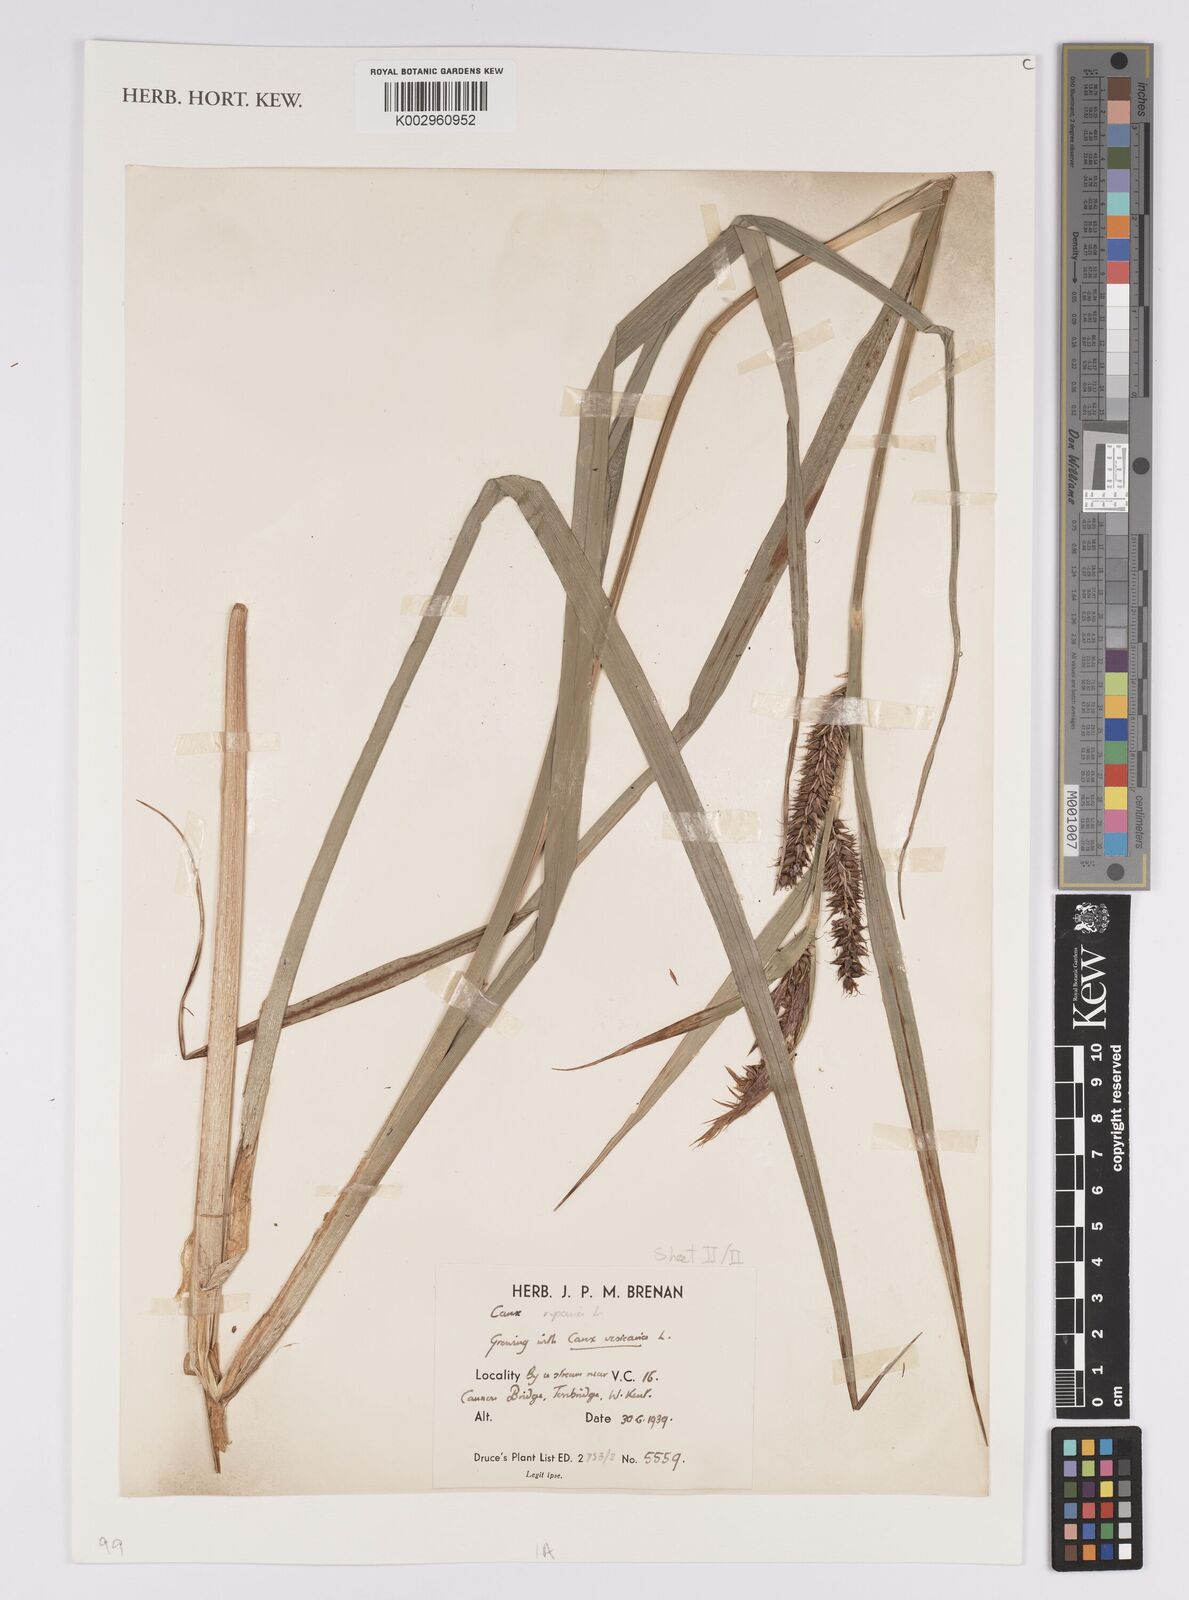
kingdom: Plantae
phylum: Tracheophyta
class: Liliopsida
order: Poales
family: Cyperaceae
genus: Carex
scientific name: Carex riparia
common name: Greater pond-sedge
